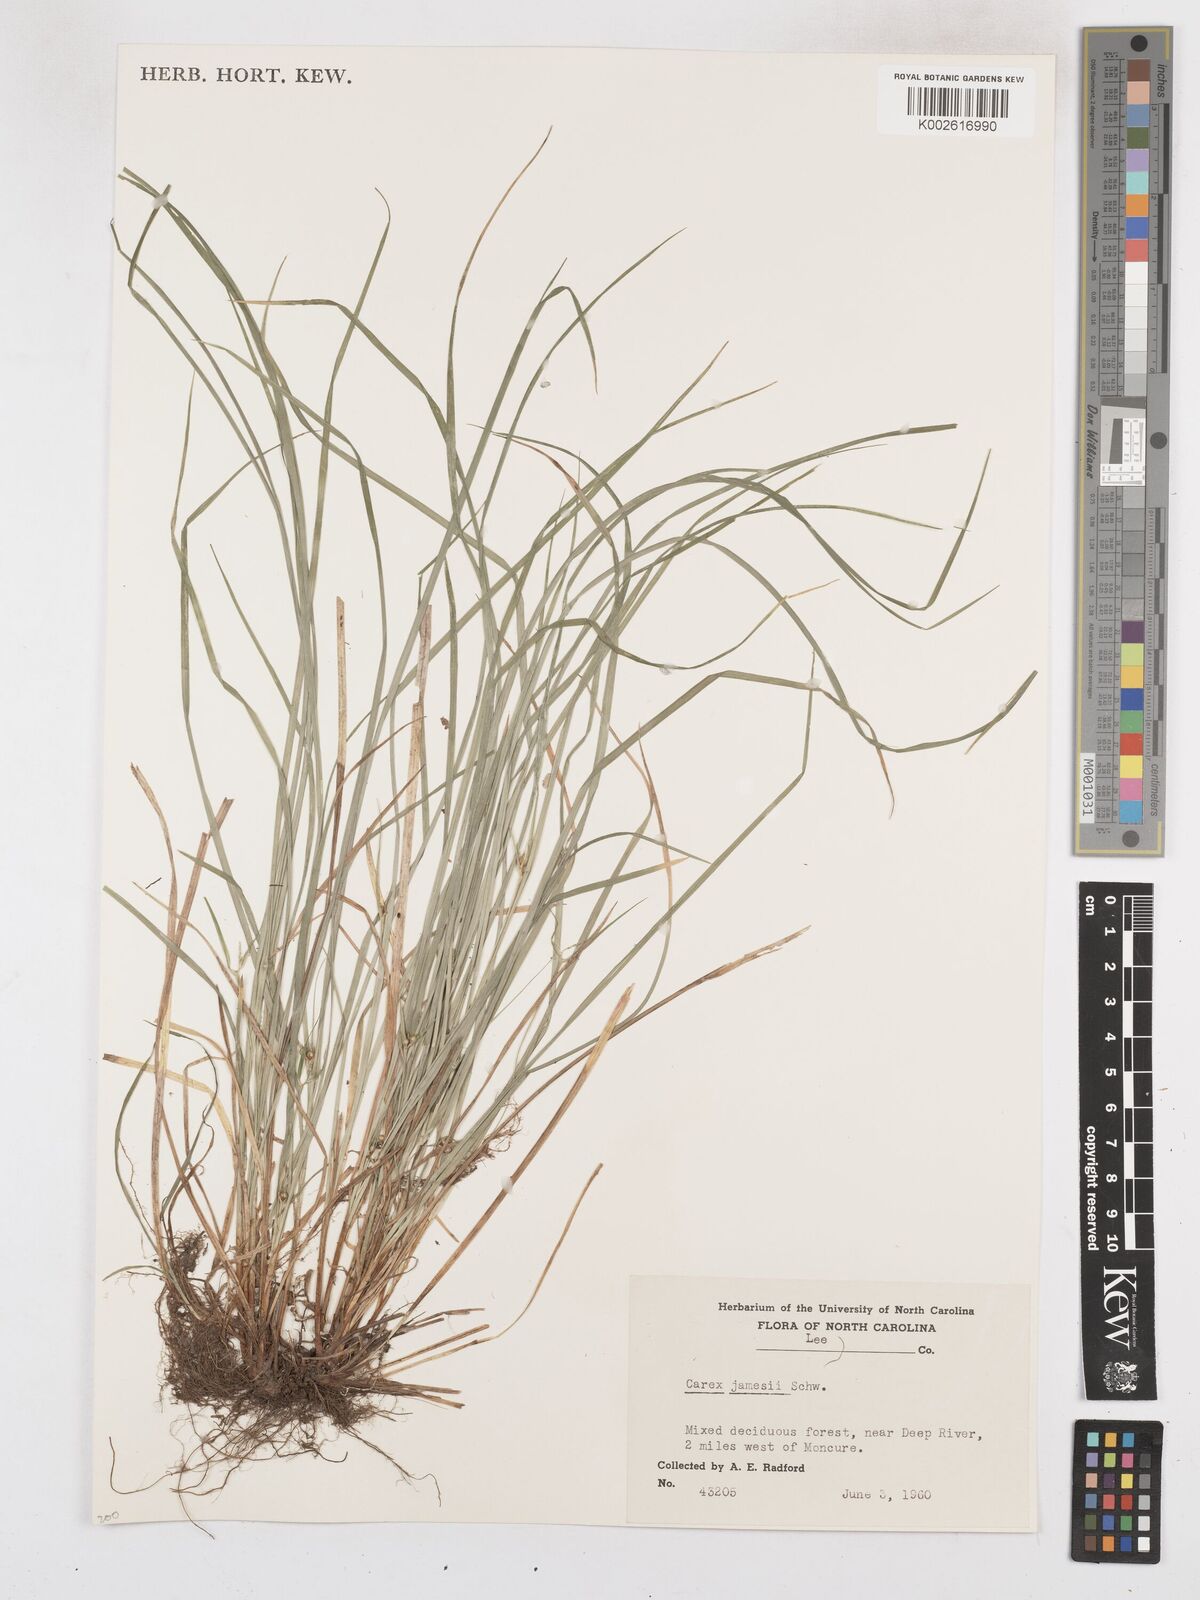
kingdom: Plantae
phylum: Tracheophyta
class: Liliopsida
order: Poales
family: Cyperaceae
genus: Carex
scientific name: Carex jamesii
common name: Grass sedge
